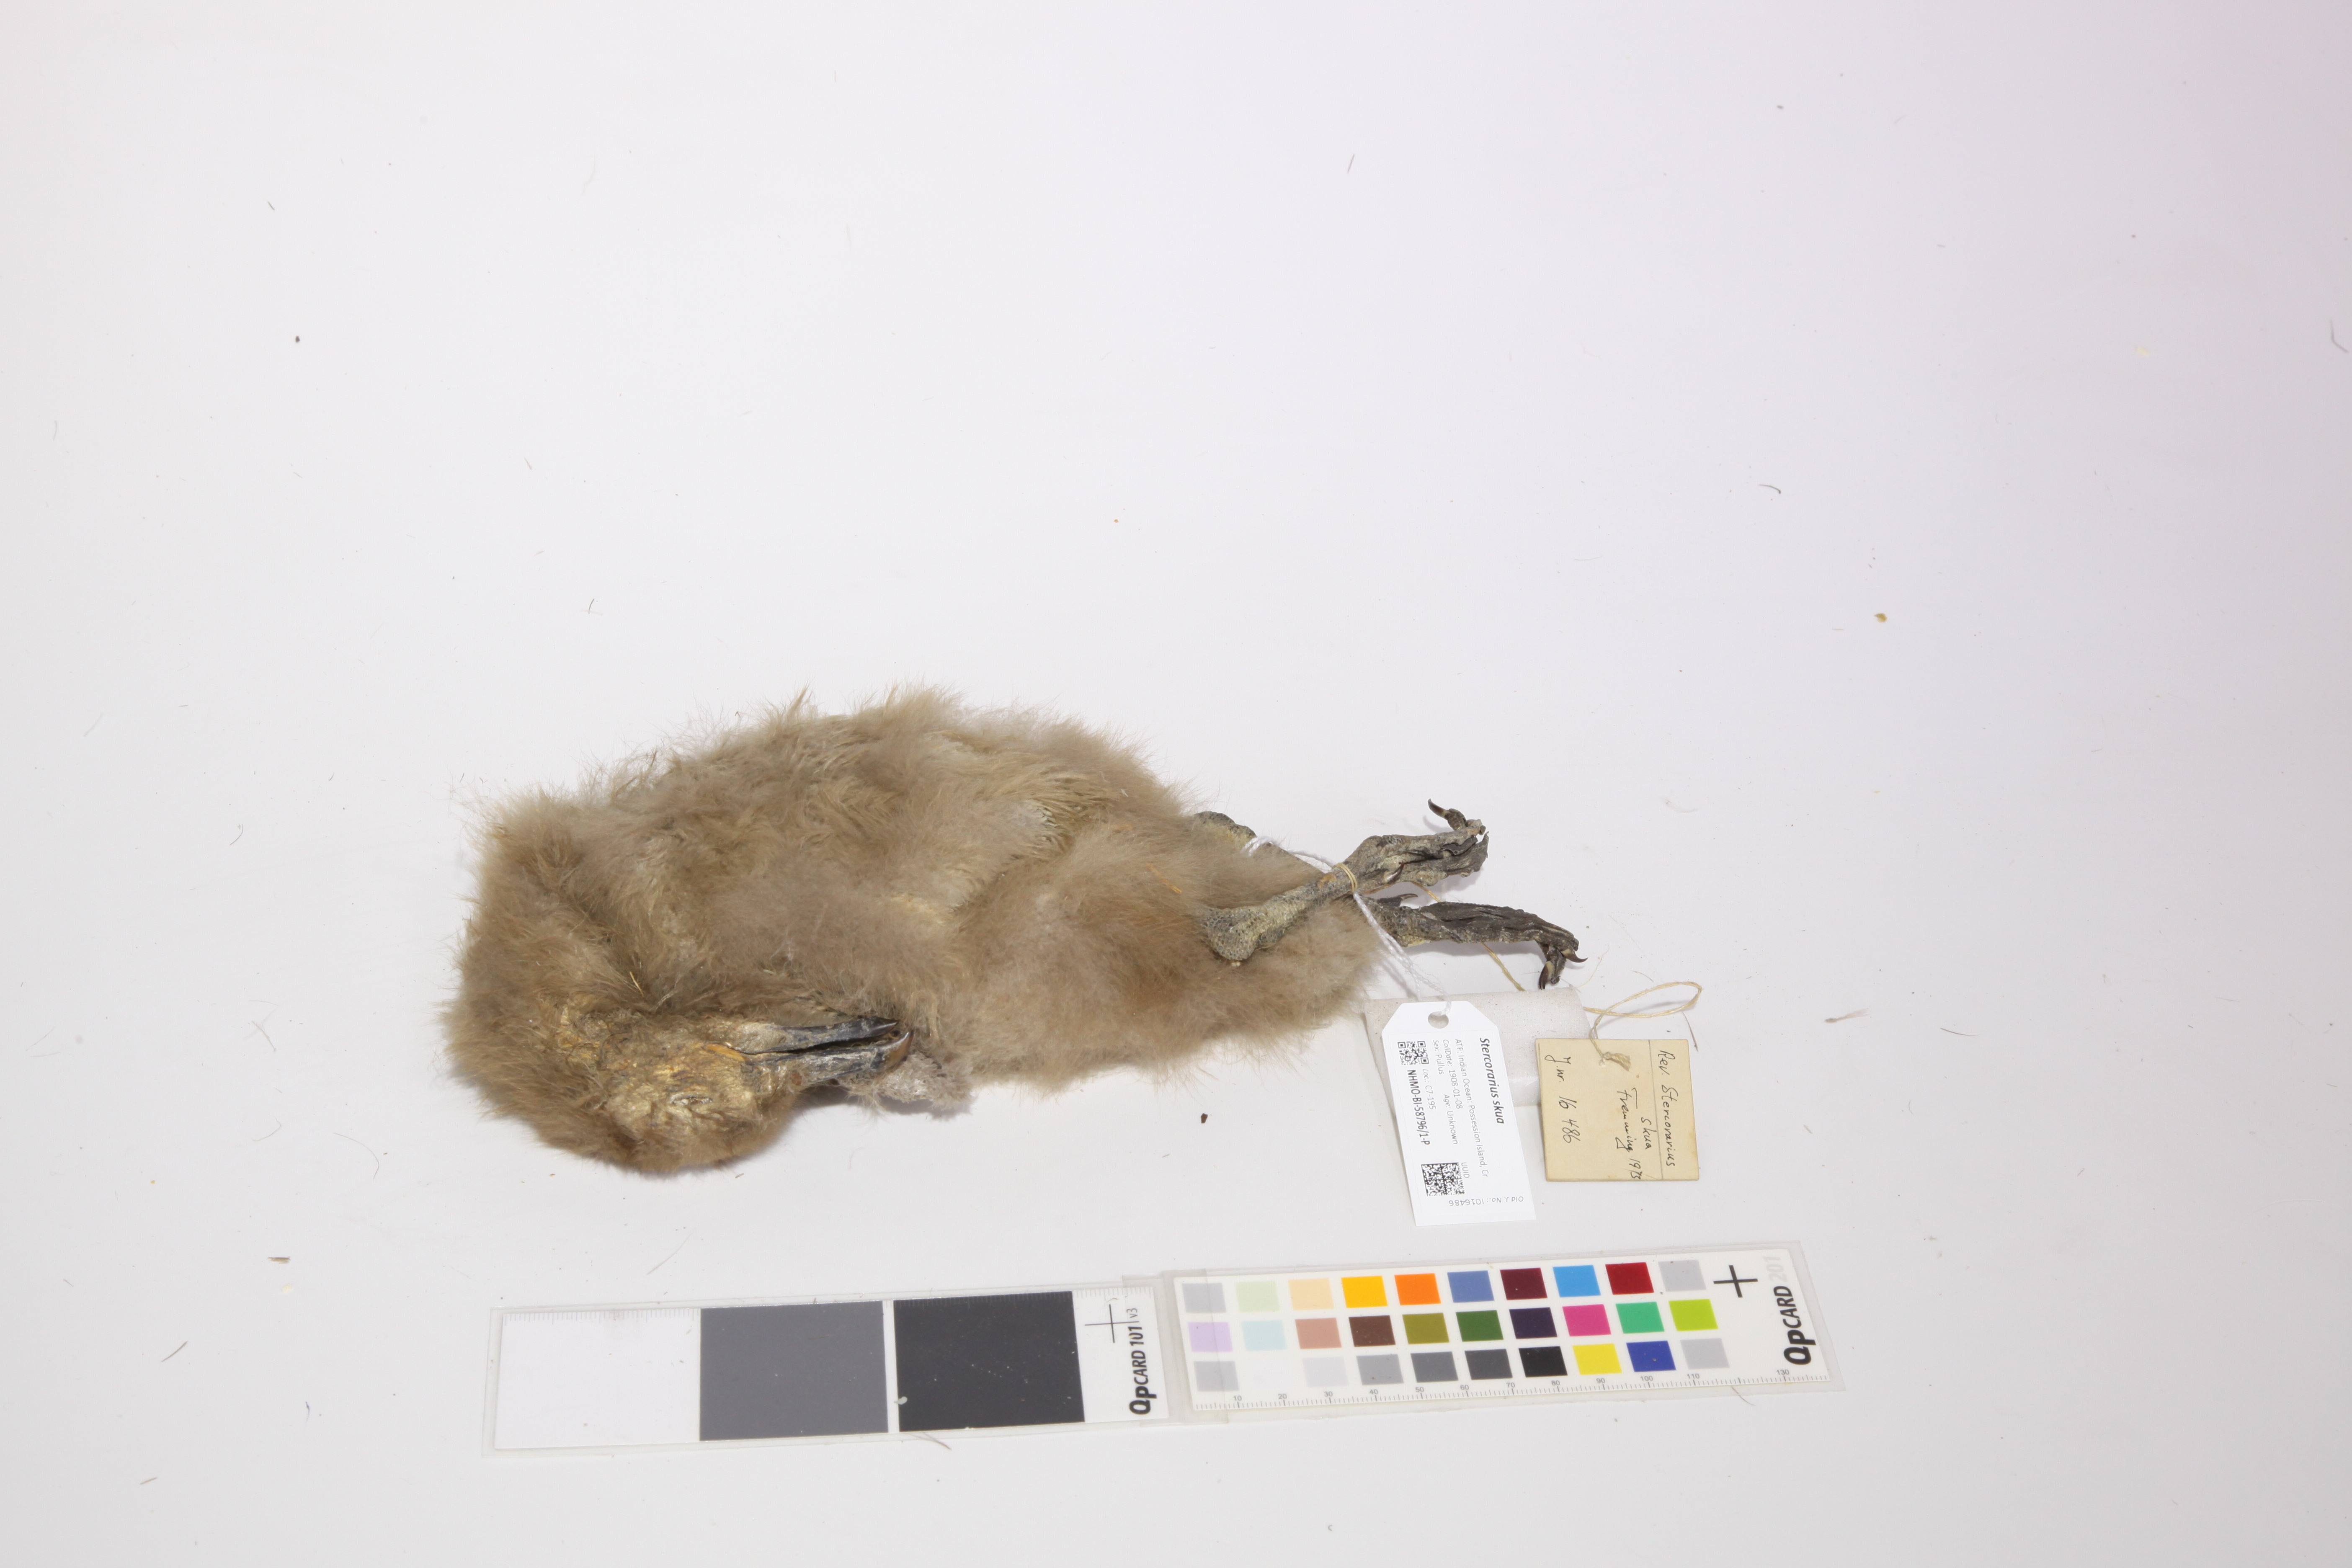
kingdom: Animalia
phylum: Chordata
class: Aves
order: Charadriiformes
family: Stercorariidae
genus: Stercorarius
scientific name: Stercorarius antarcticus
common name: Brown skua
